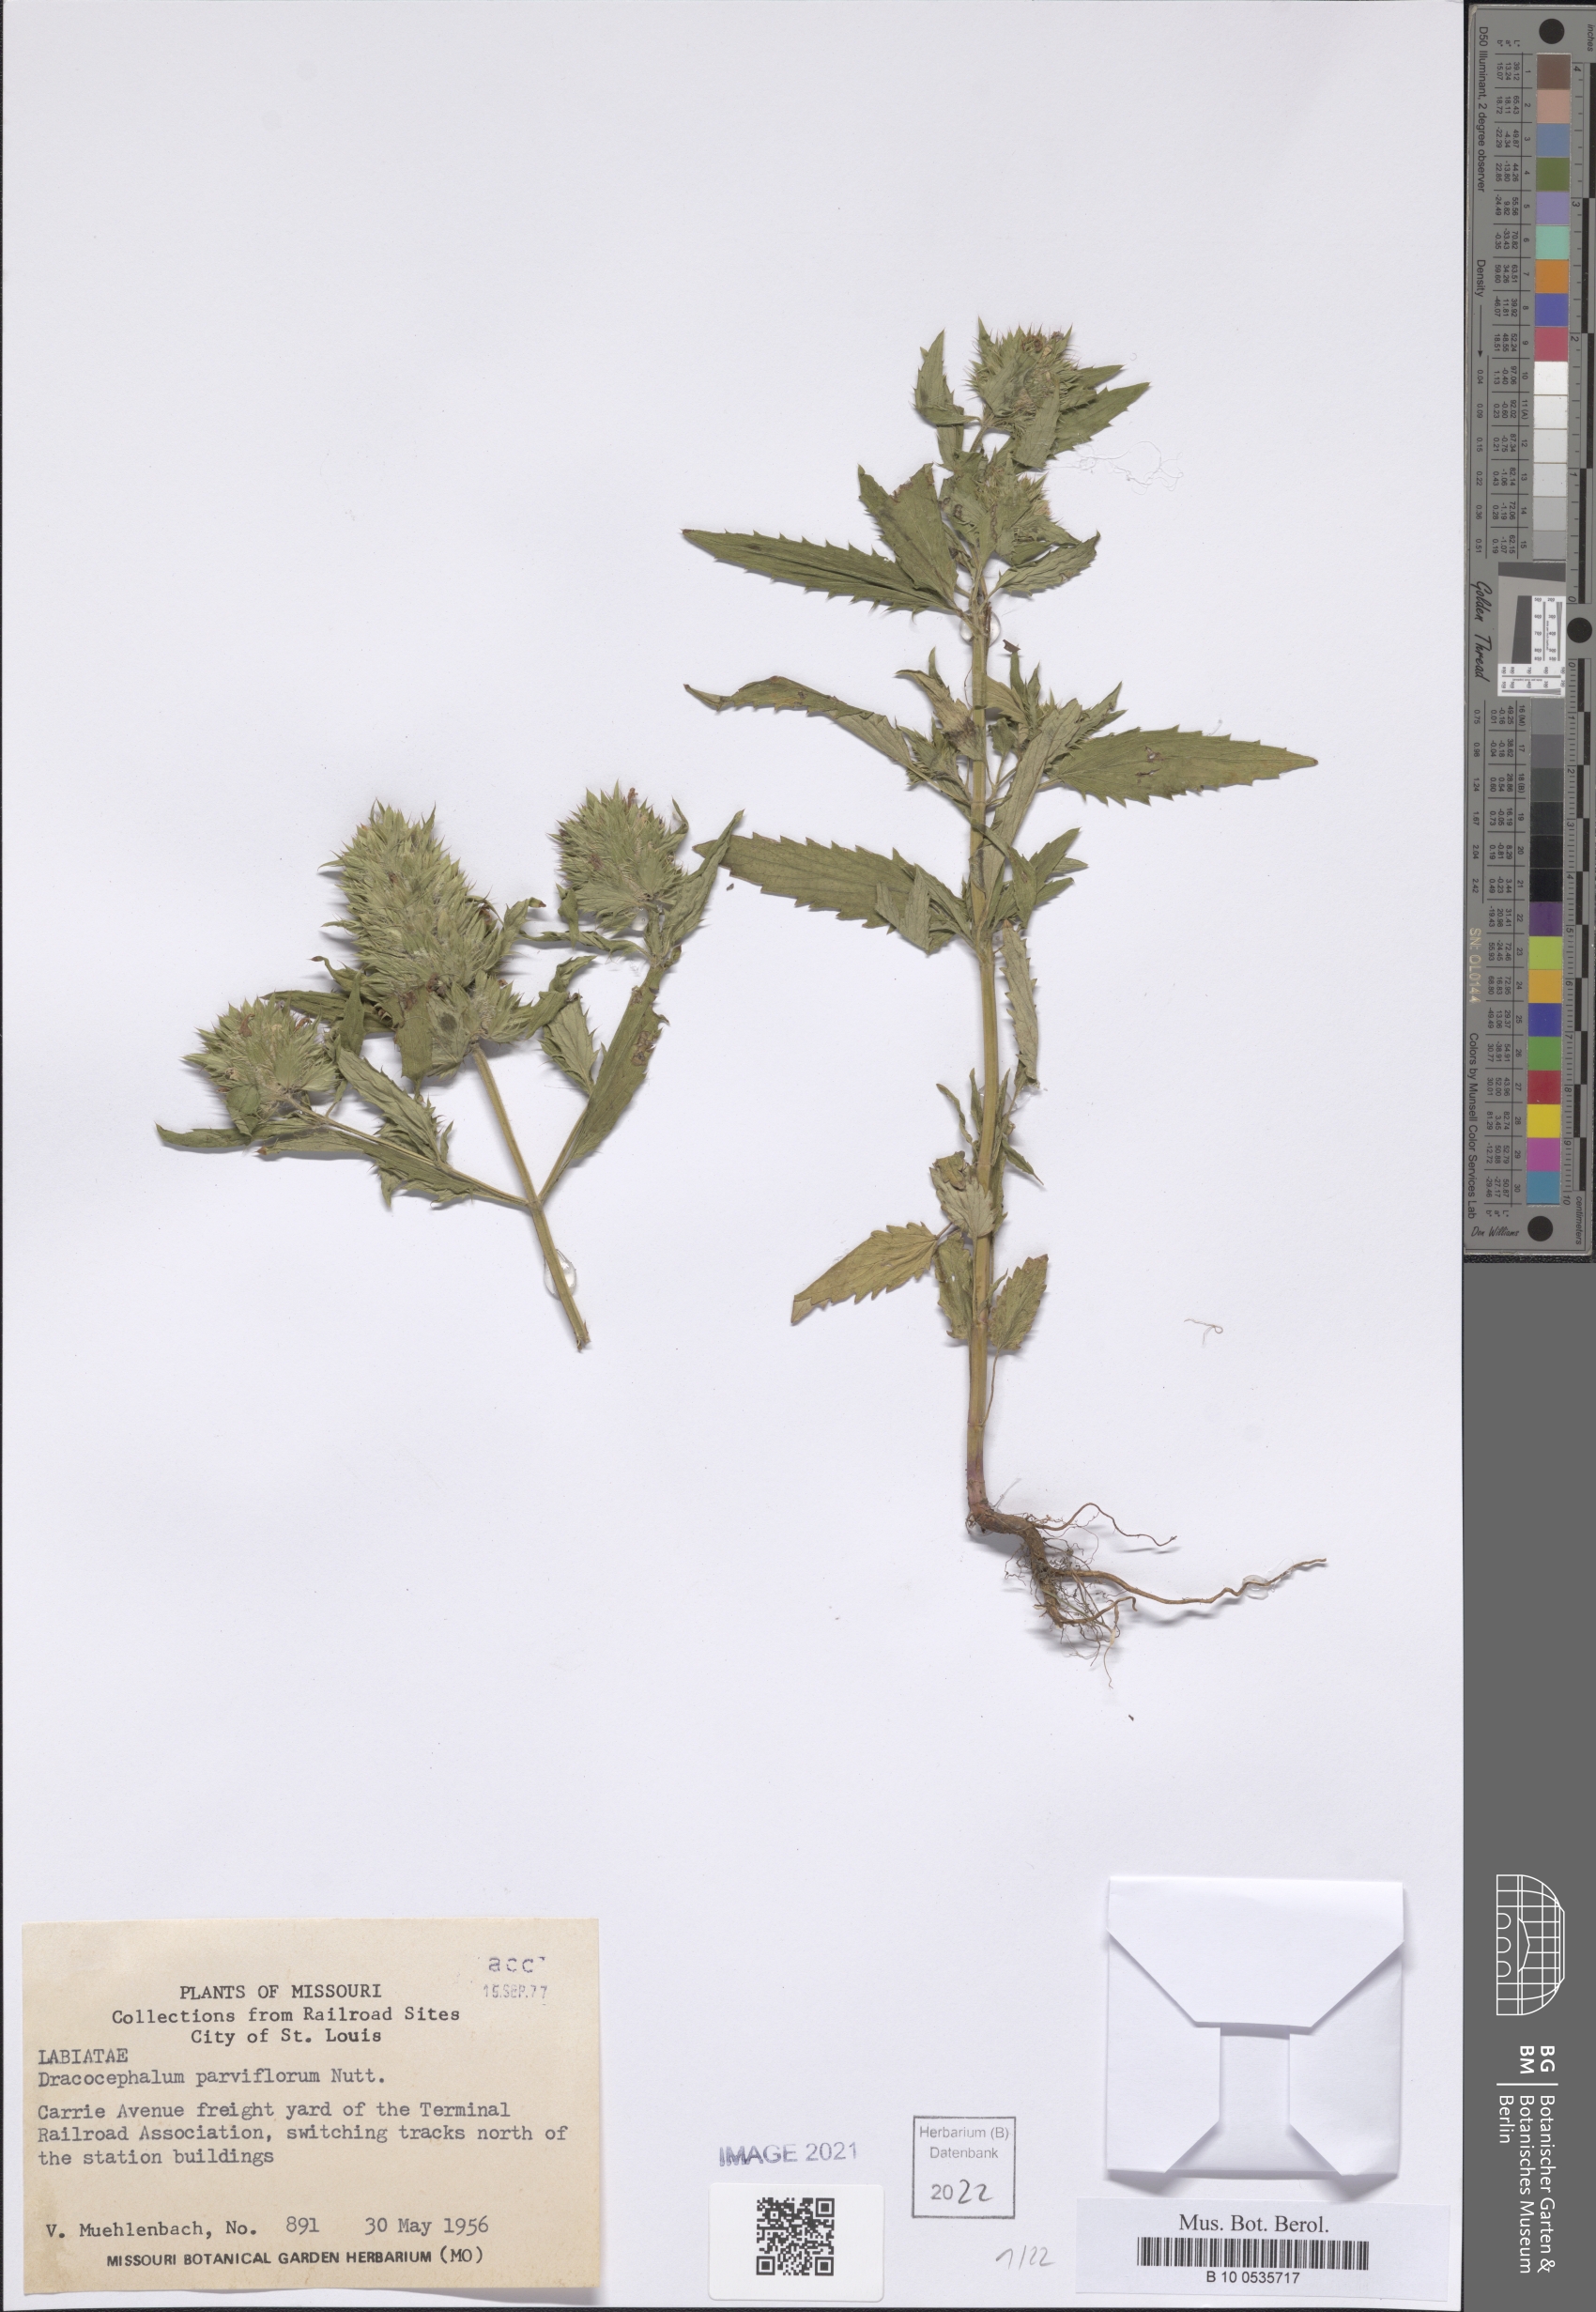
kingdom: Plantae
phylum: Tracheophyta
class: Magnoliopsida
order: Lamiales
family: Lamiaceae
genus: Dracocephalum
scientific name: Dracocephalum parviflorum
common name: American dragonhead
